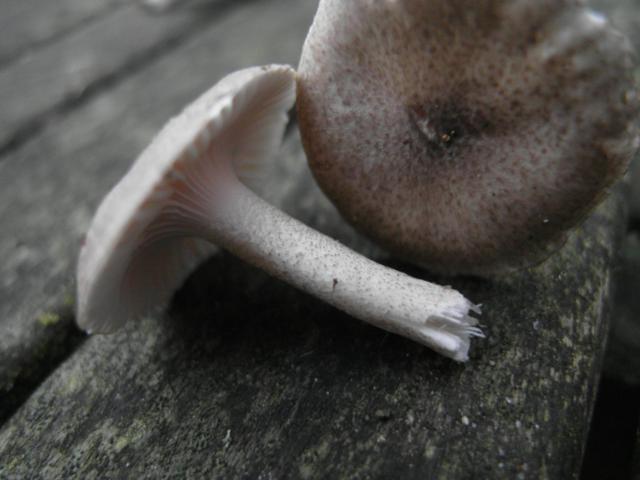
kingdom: Fungi
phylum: Basidiomycota
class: Agaricomycetes
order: Agaricales
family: Hygrophoraceae
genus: Hygrophorus
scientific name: Hygrophorus pustulatus
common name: mørkprikket sneglehat
